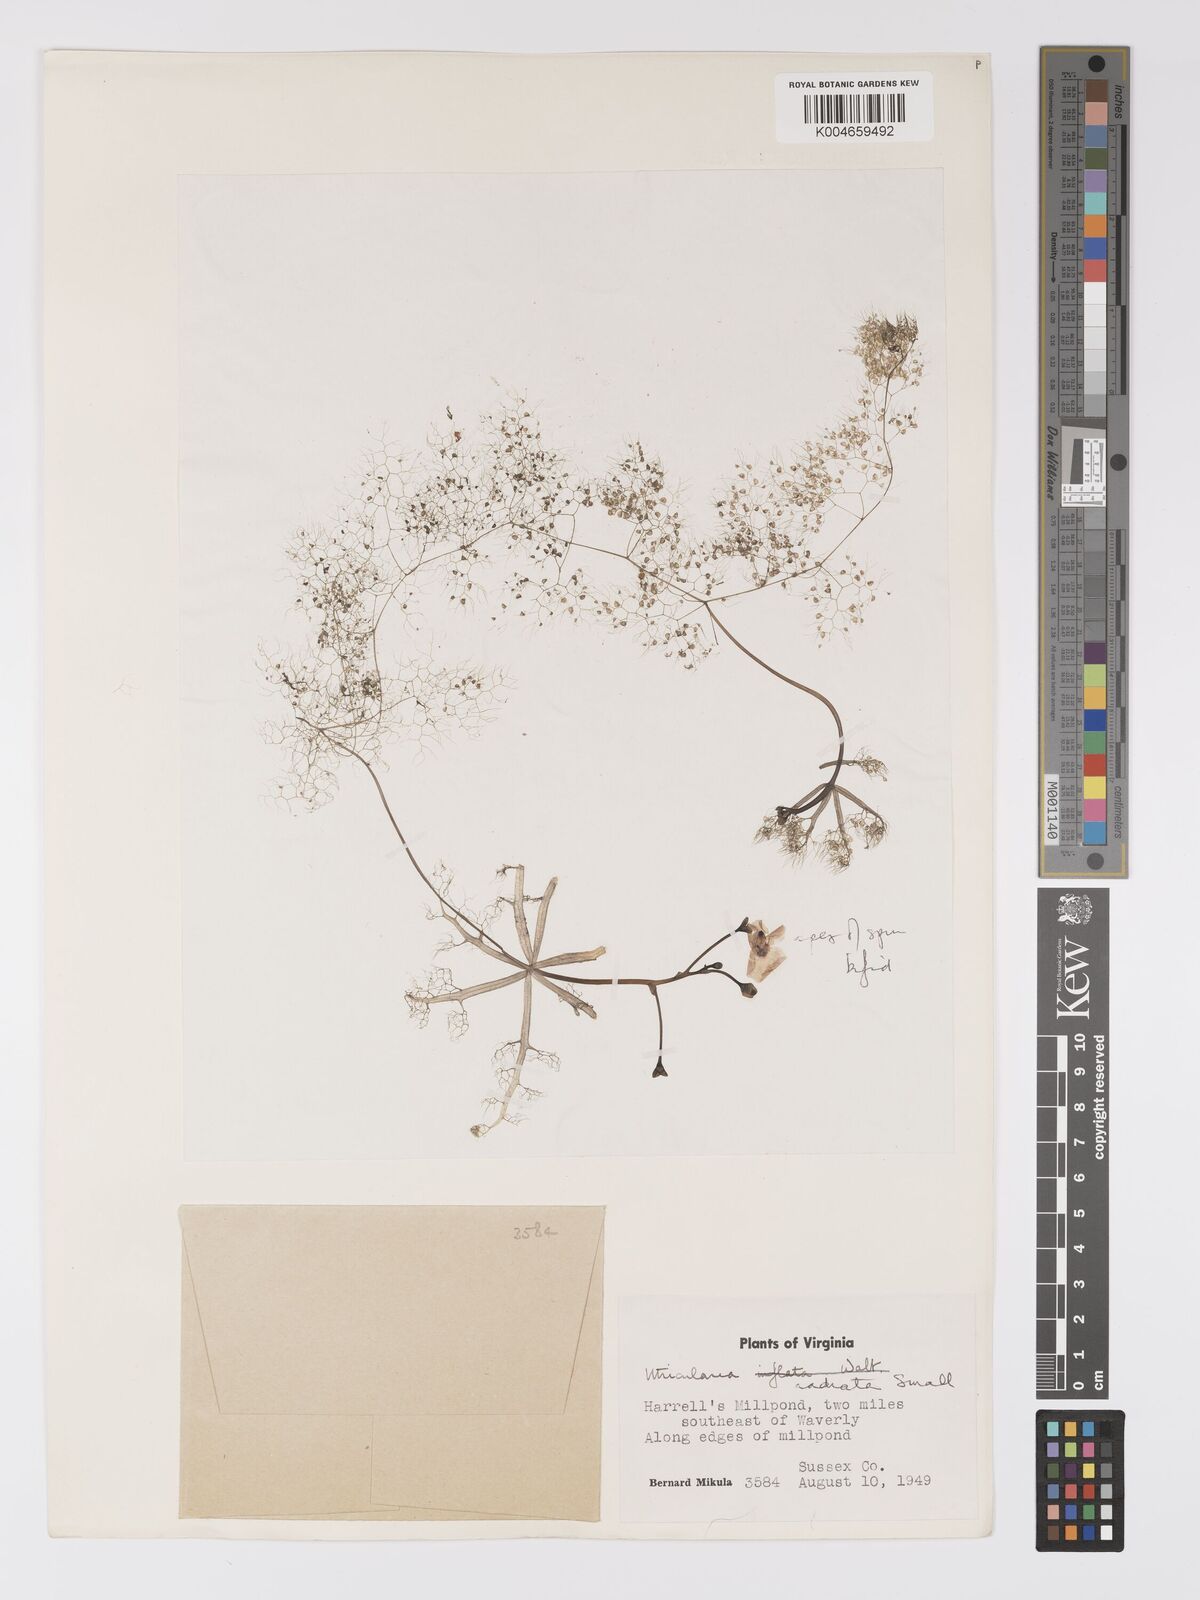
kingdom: Plantae
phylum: Tracheophyta
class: Magnoliopsida
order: Lamiales
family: Lentibulariaceae
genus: Utricularia
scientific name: Utricularia radiata
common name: Floating bladderwort
